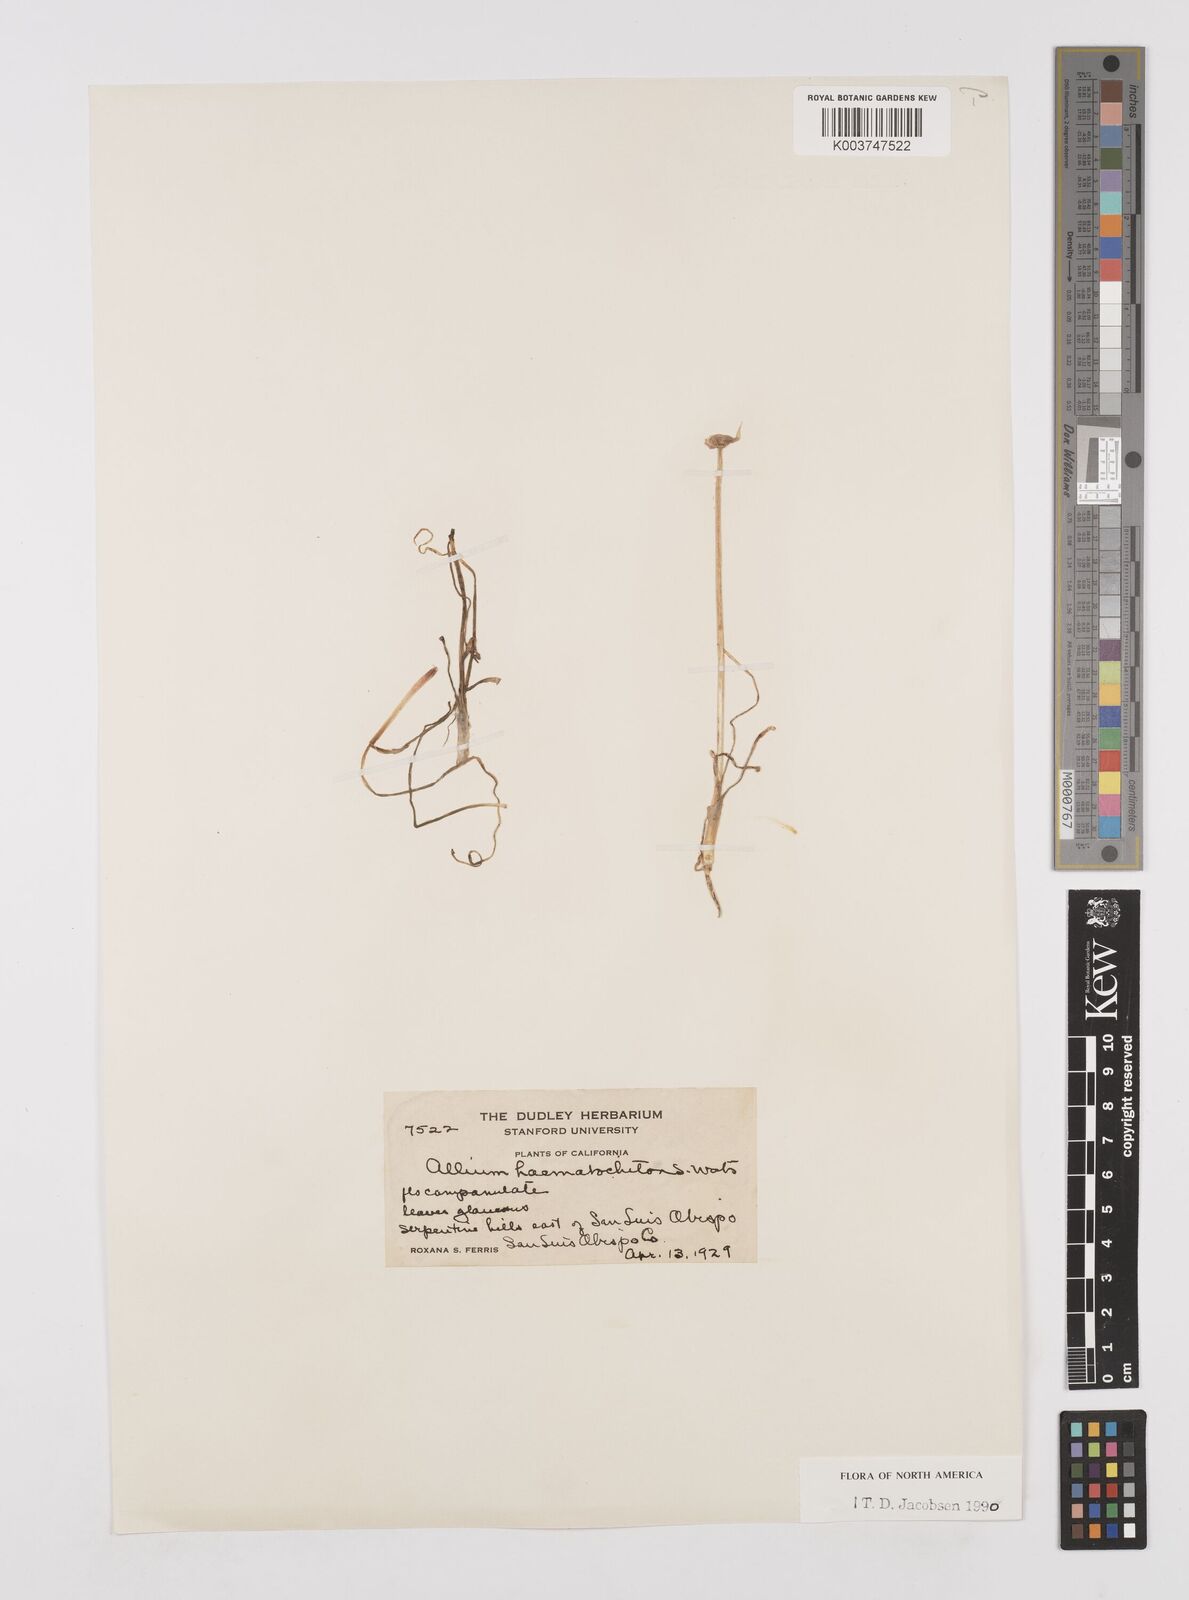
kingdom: Plantae
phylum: Tracheophyta
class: Liliopsida
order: Asparagales
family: Amaryllidaceae
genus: Allium
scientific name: Allium haematochiton
